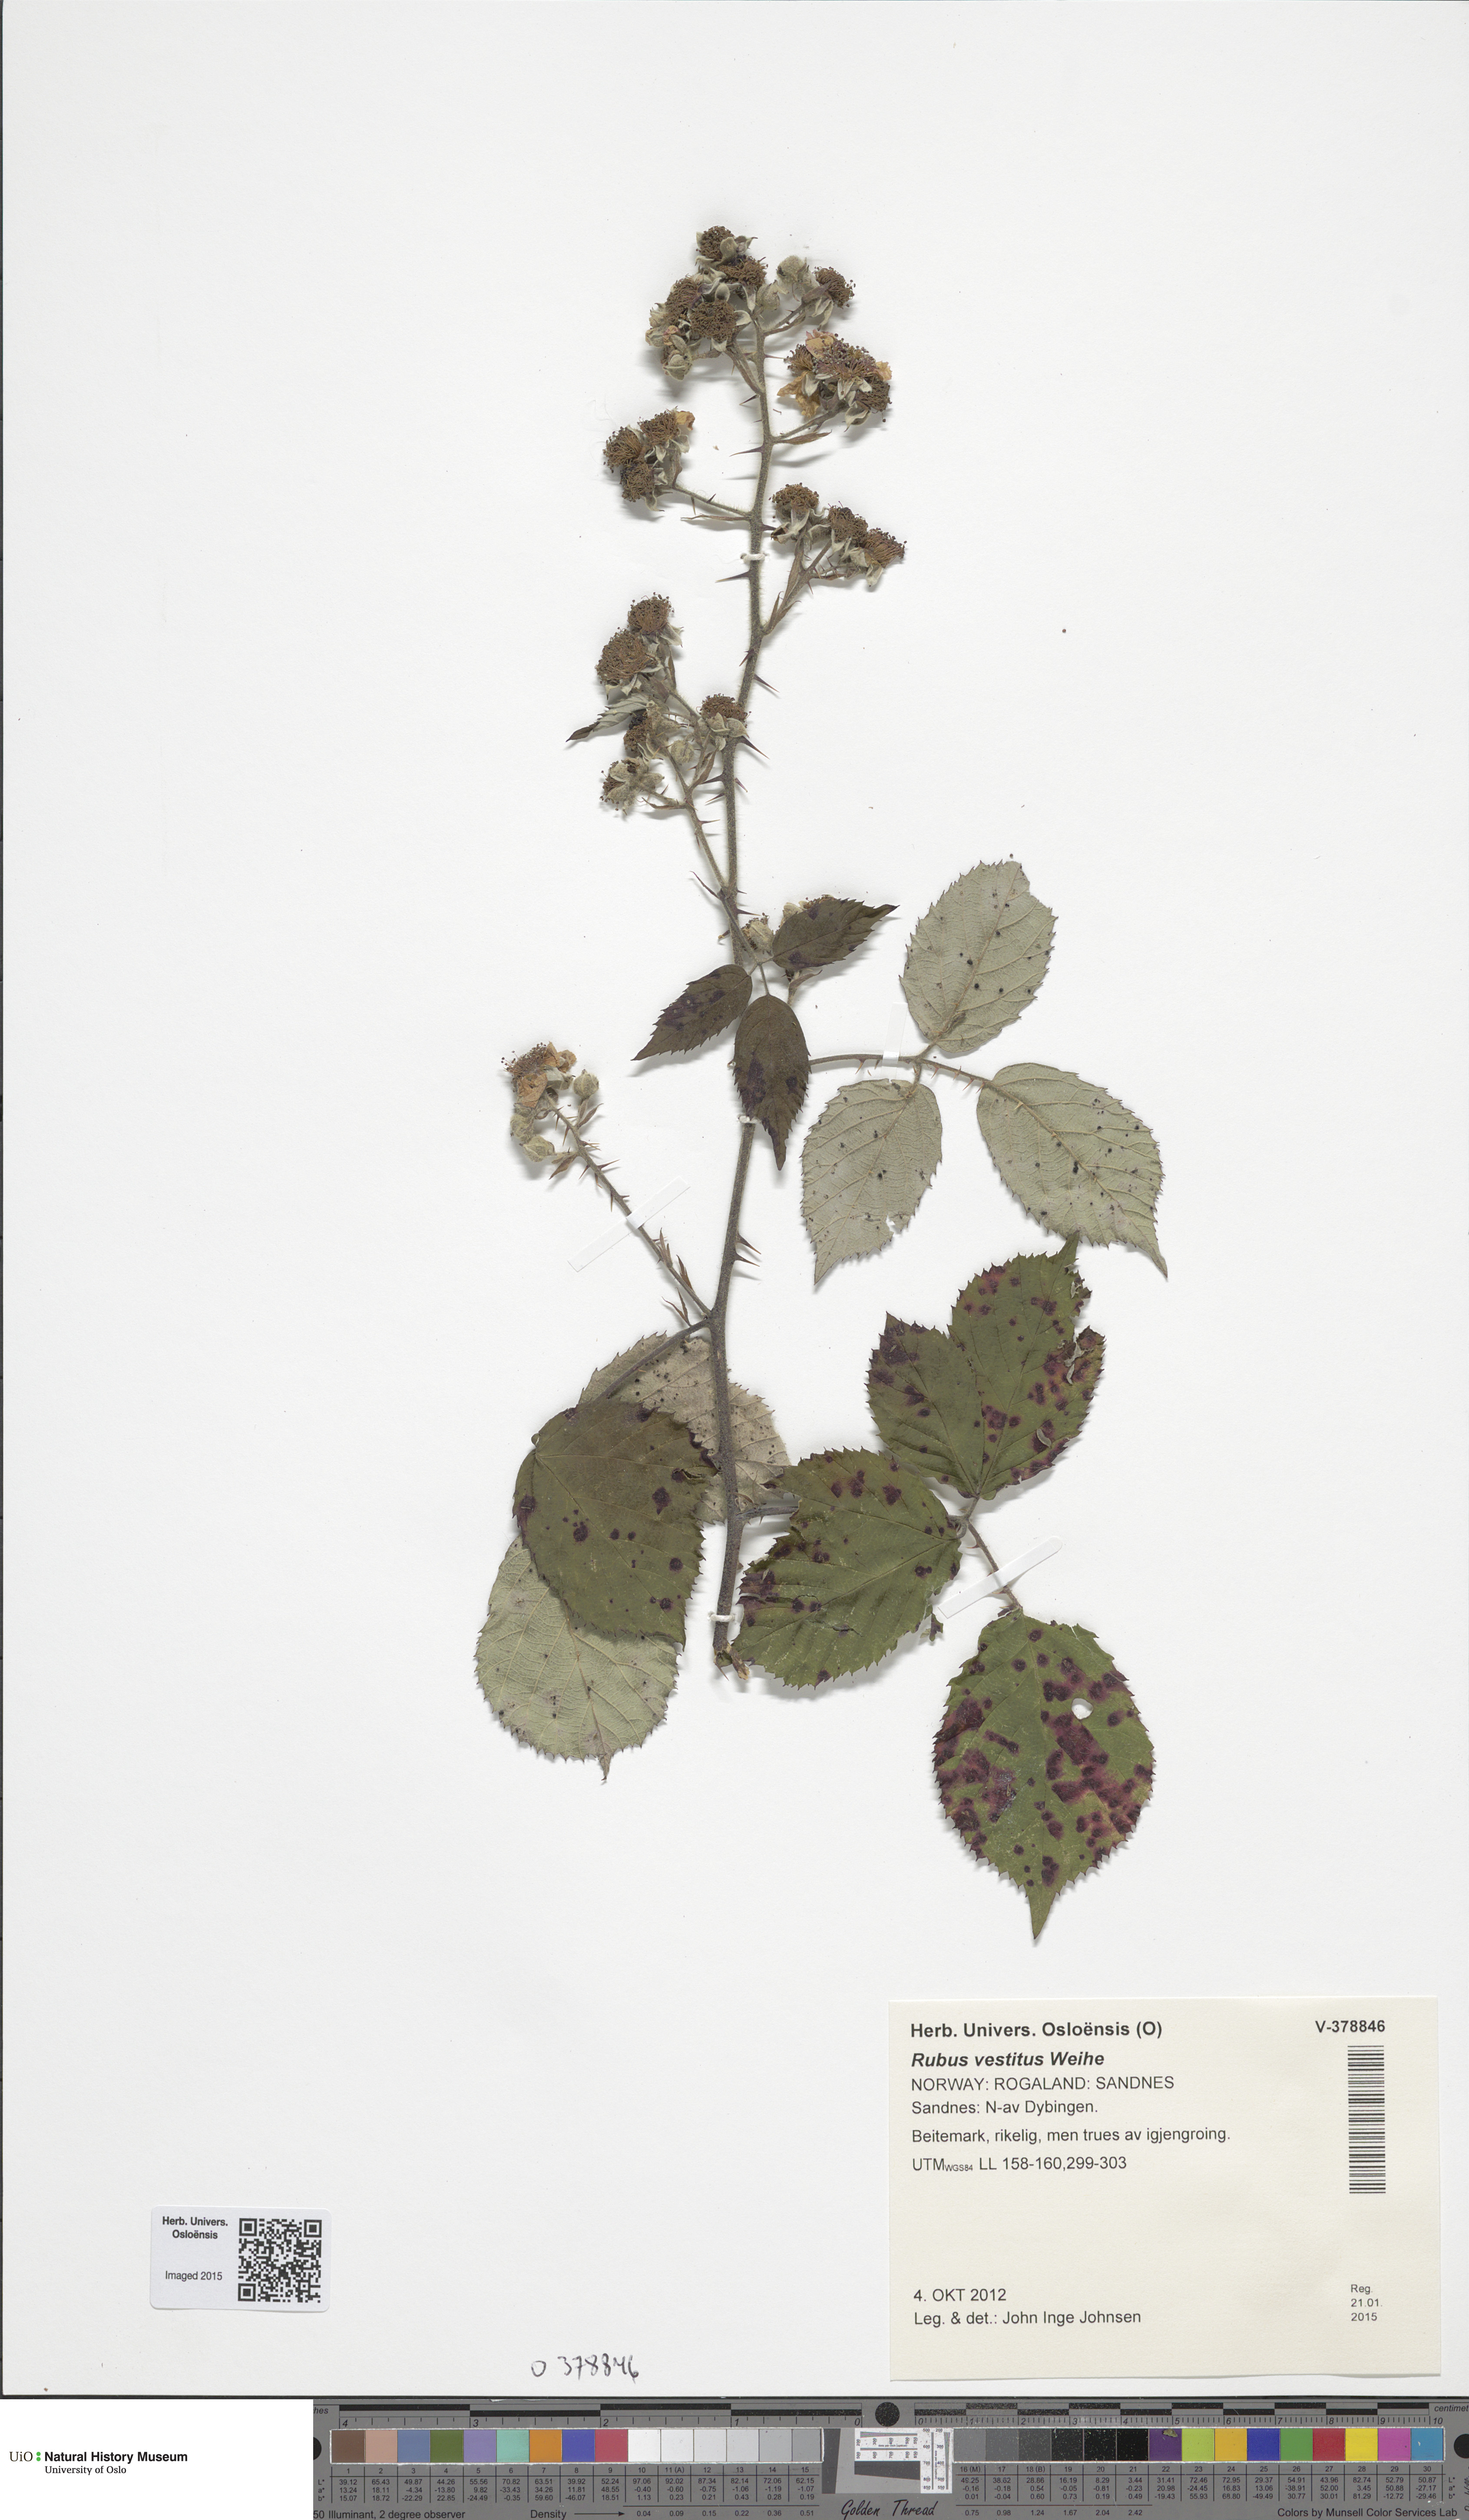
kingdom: Plantae
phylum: Tracheophyta
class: Magnoliopsida
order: Rosales
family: Rosaceae
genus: Rubus
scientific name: Rubus vestitus
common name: European blackberry
